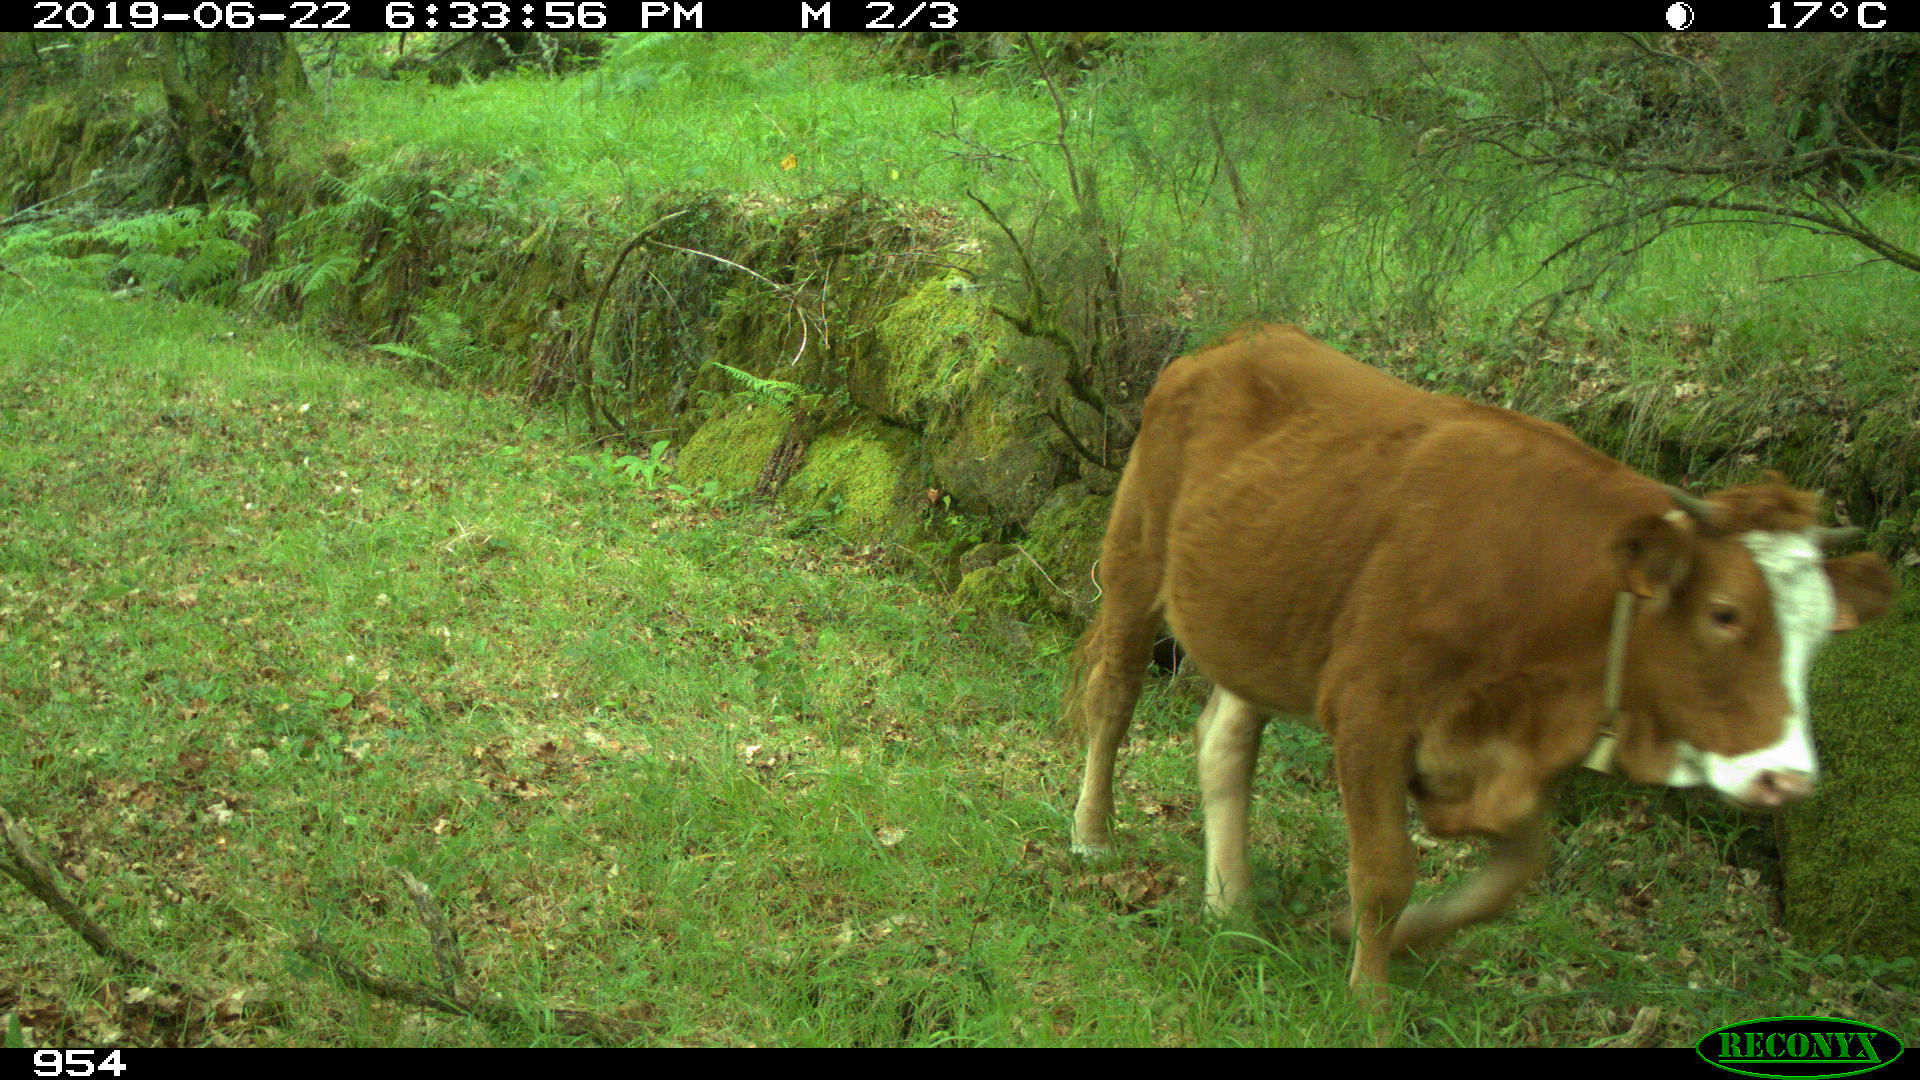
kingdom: Animalia
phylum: Chordata
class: Mammalia
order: Artiodactyla
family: Bovidae
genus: Bos
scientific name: Bos taurus
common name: Domesticated cattle
